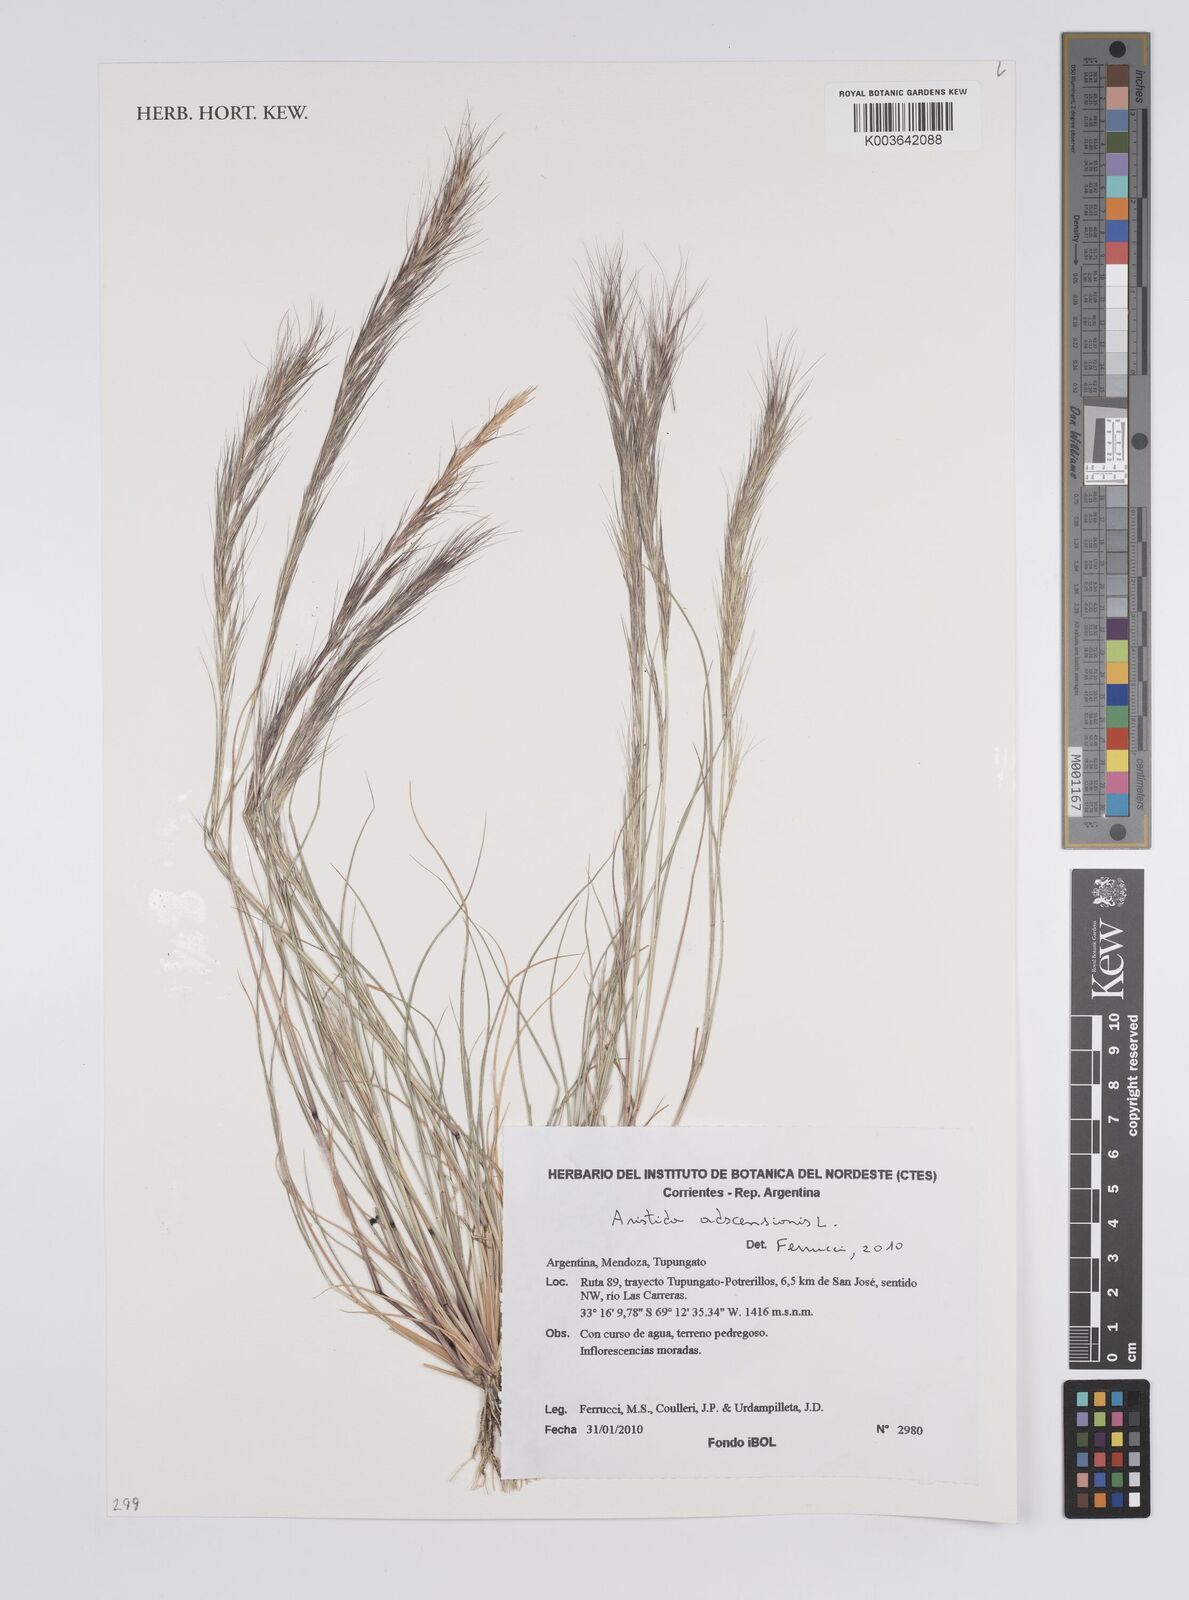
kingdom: Plantae
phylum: Tracheophyta
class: Liliopsida
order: Poales
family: Poaceae
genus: Aristida
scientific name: Aristida adscensionis
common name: Sixweeks threeawn
